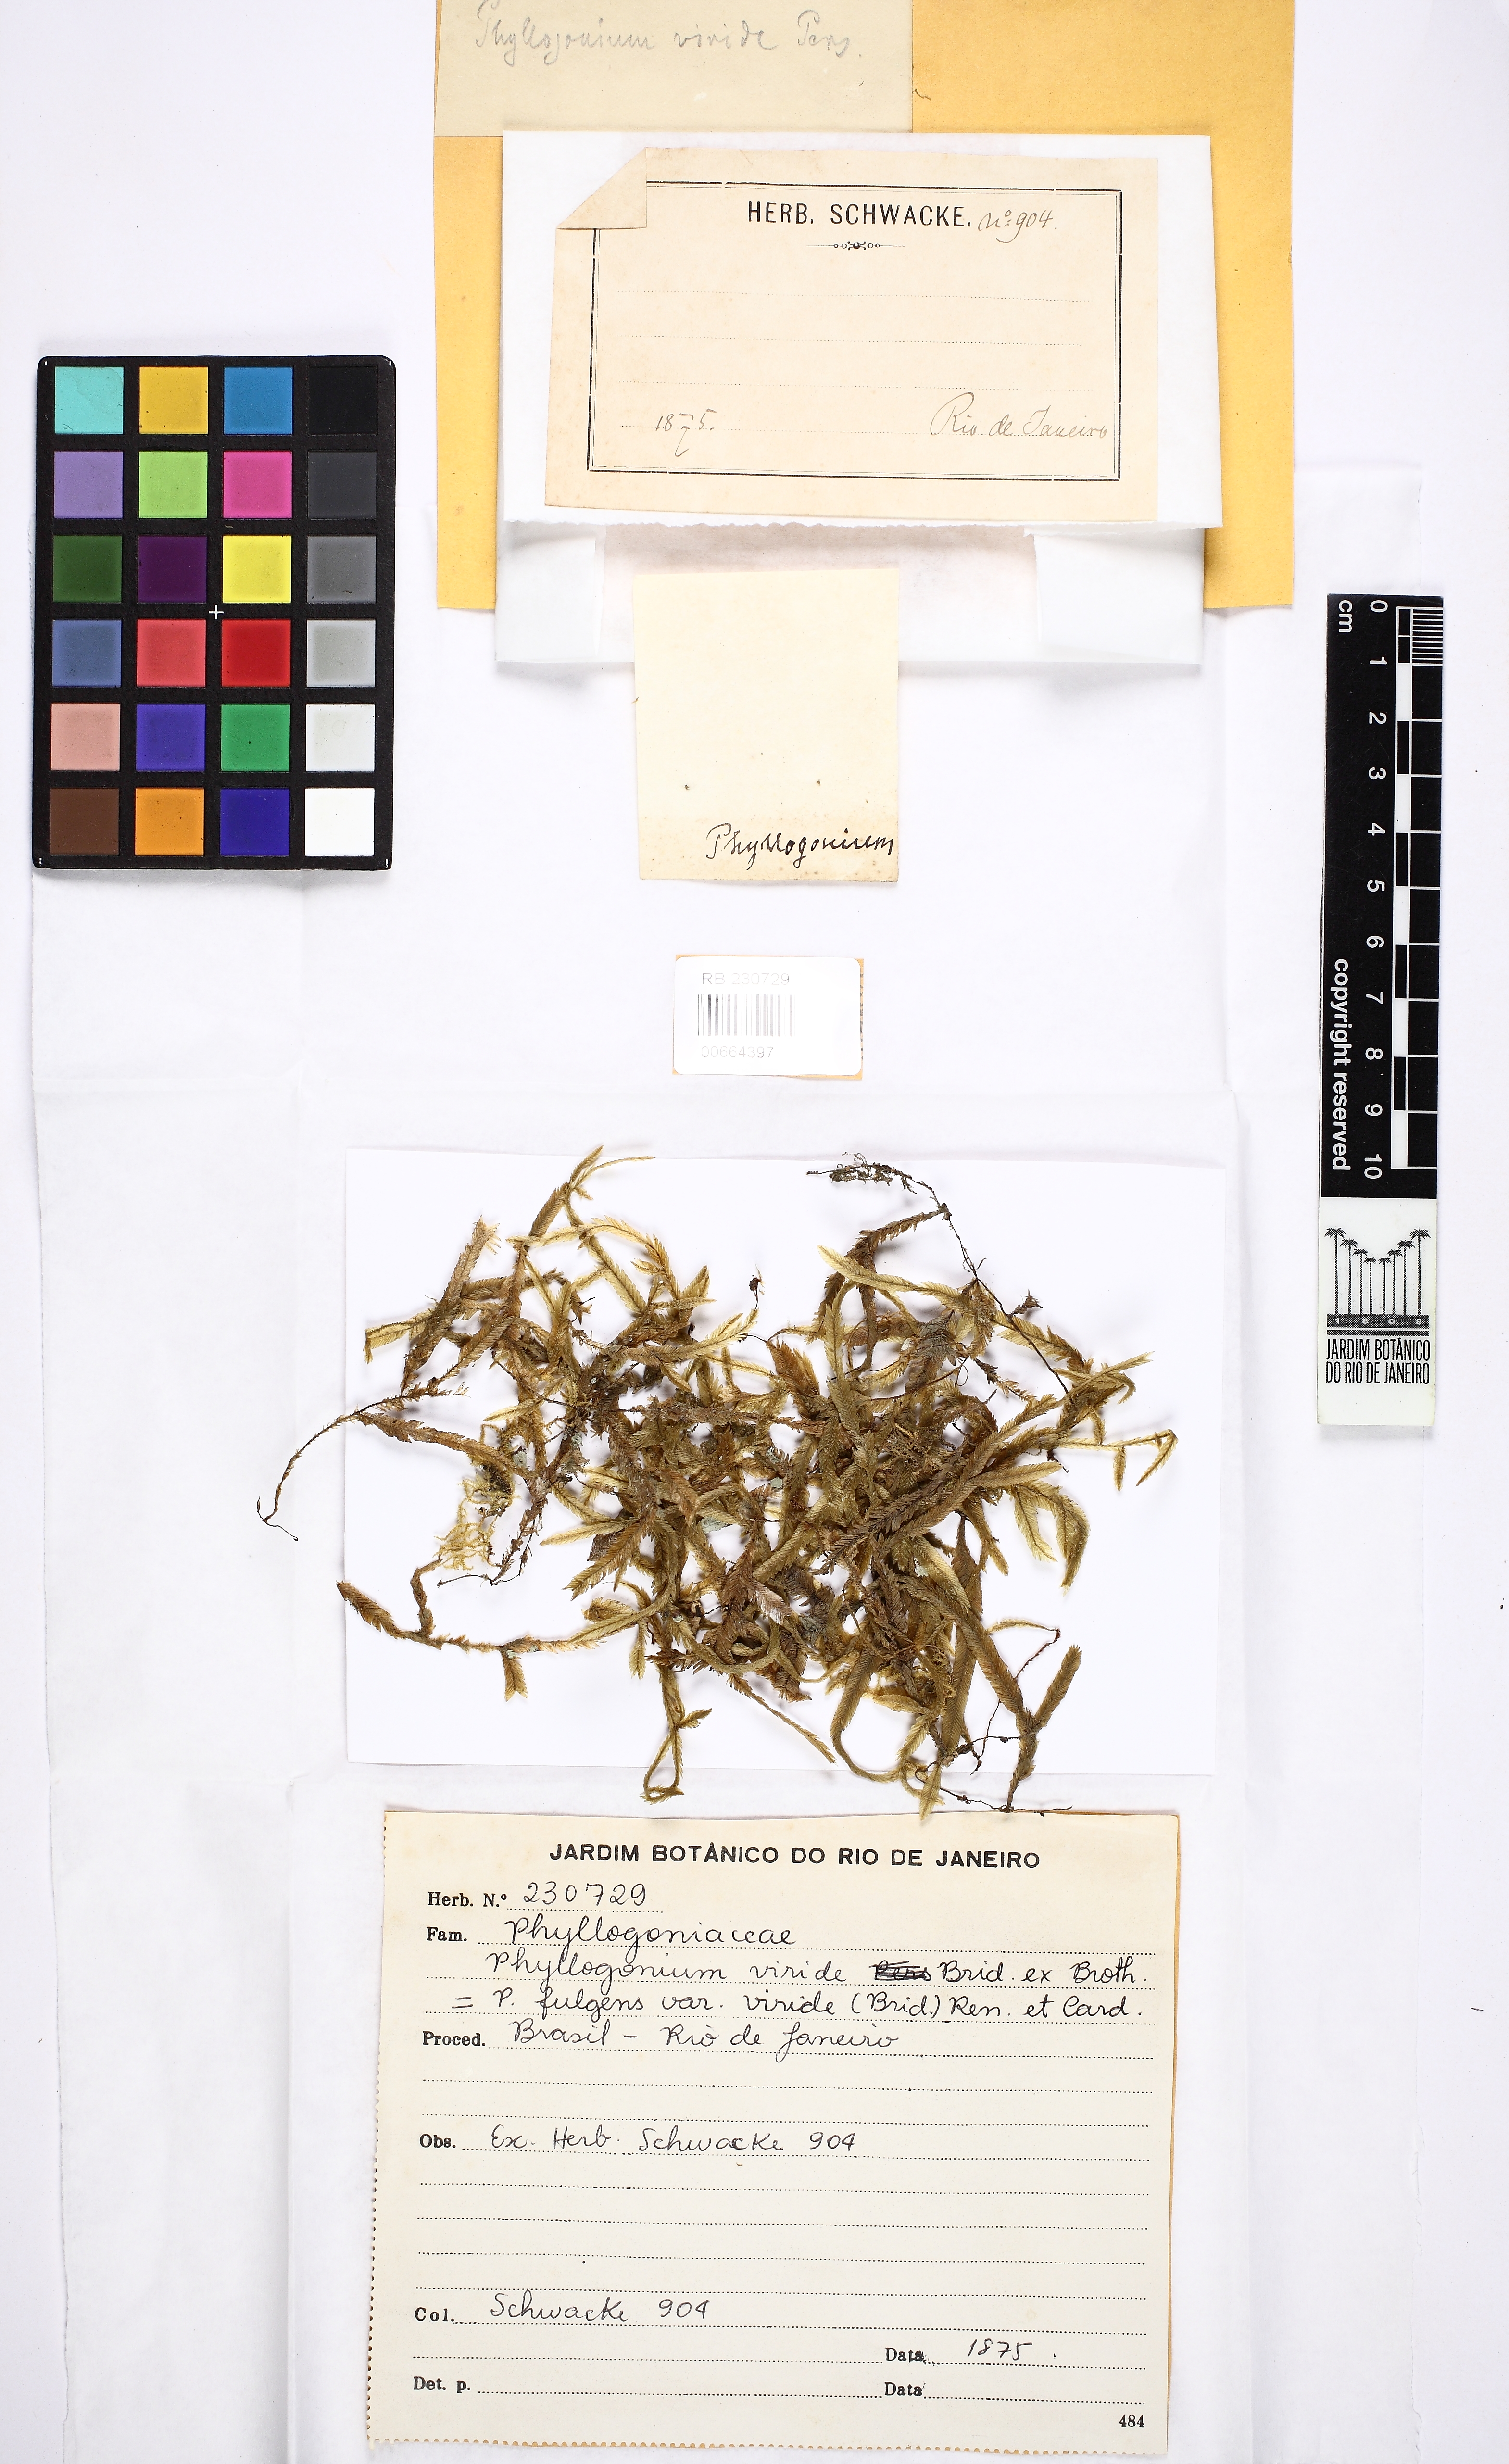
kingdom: Plantae
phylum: Bryophyta
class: Bryopsida
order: Hypnales
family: Phyllogoniaceae
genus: Phyllogonium
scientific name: Phyllogonium viride
